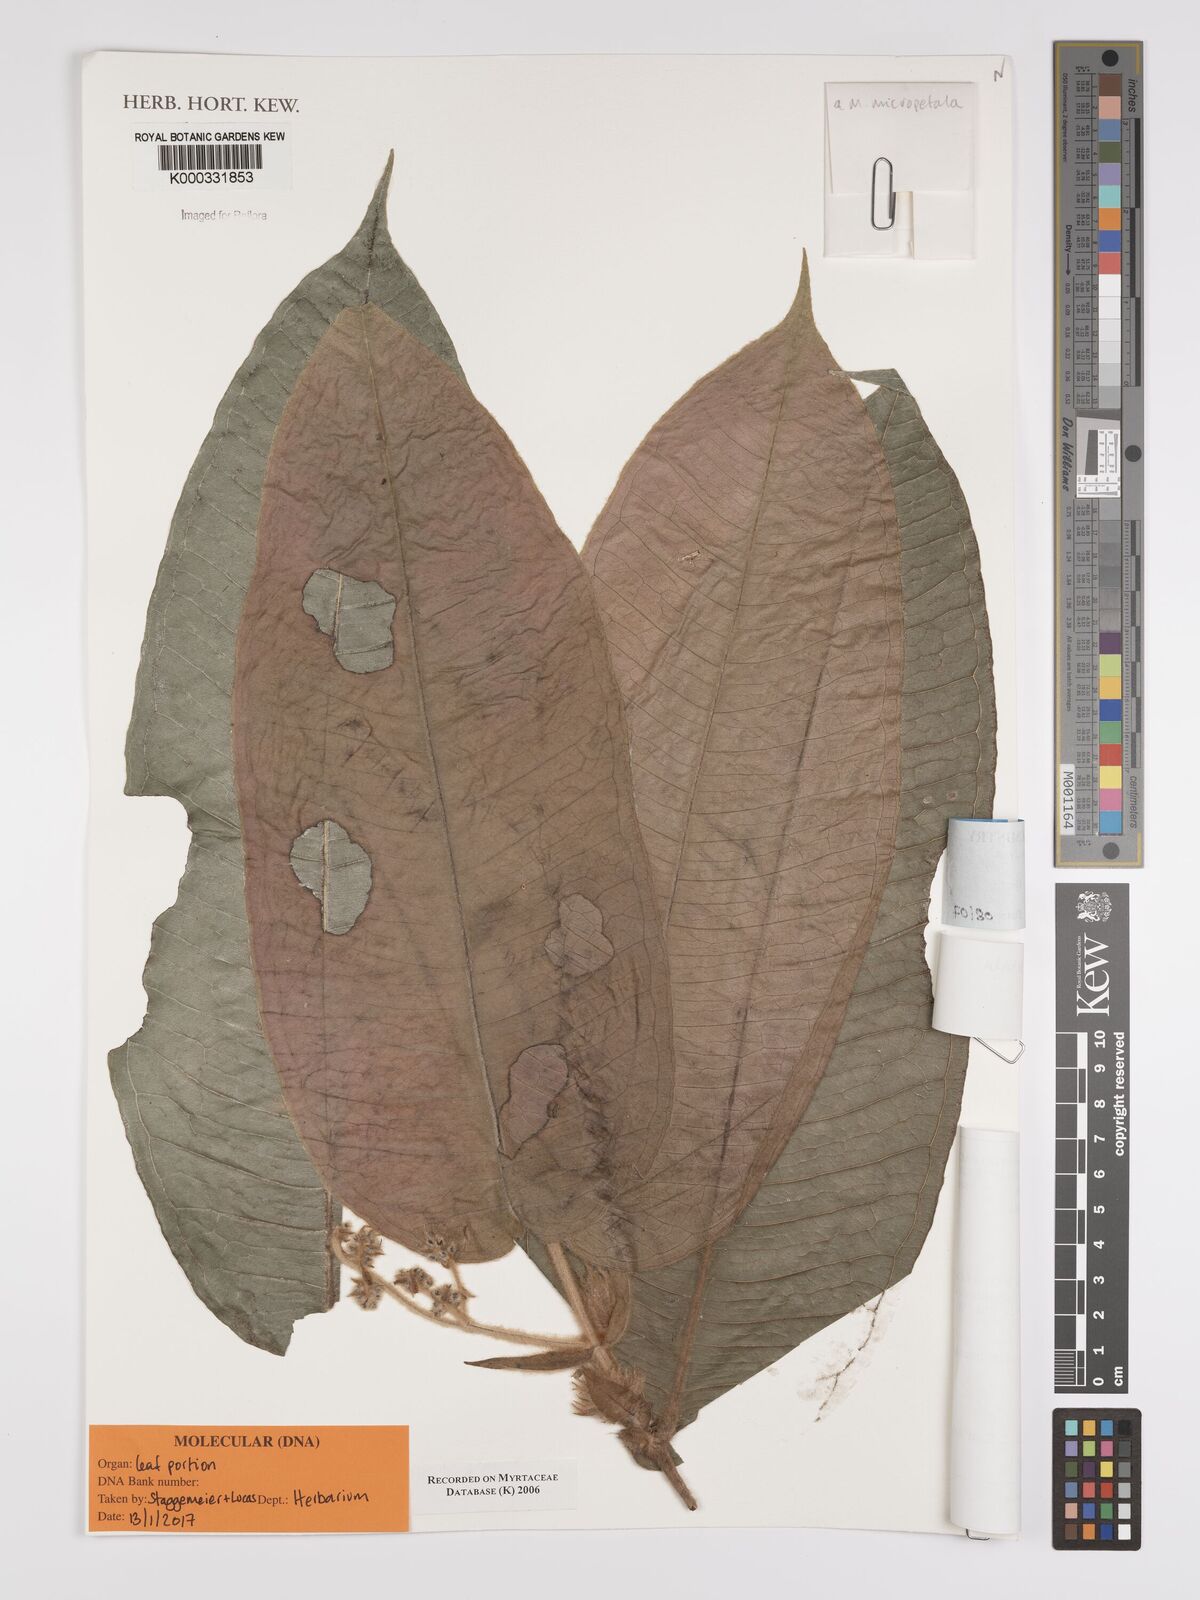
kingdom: Plantae
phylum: Tracheophyta
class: Magnoliopsida
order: Myrtales
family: Myrtaceae
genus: Myrcia
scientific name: Myrcia micropetala
